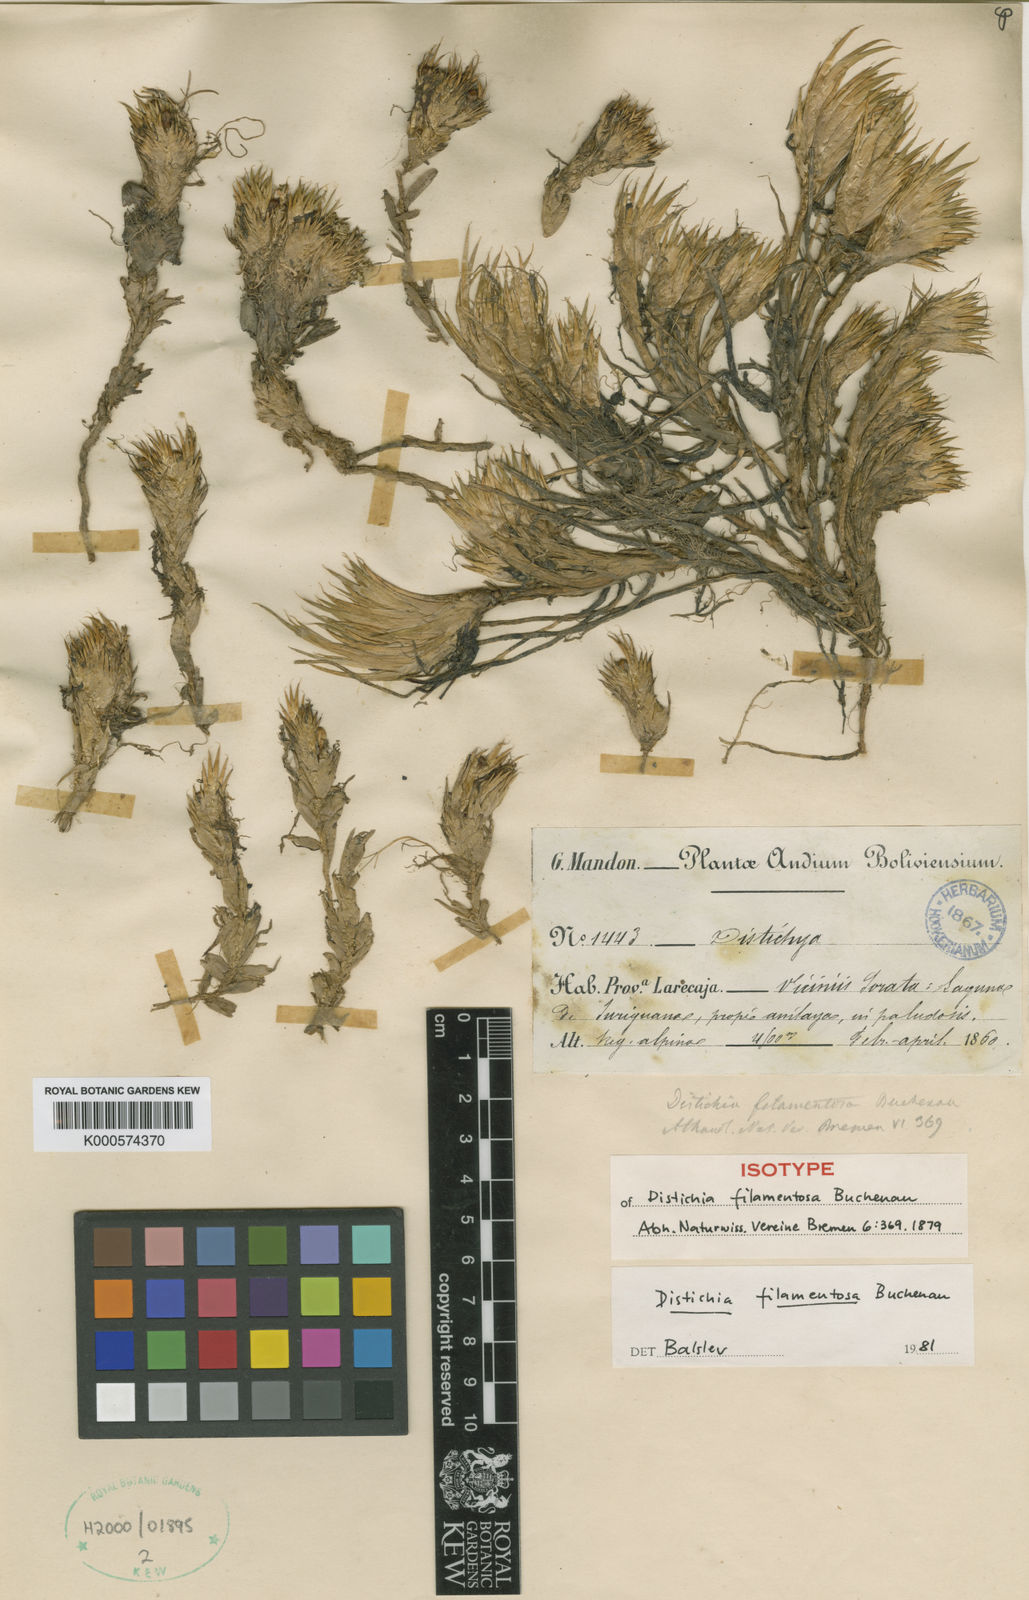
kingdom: Plantae
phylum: Tracheophyta
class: Liliopsida
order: Poales
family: Juncaceae
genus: Distichia
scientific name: Distichia filamentosa
